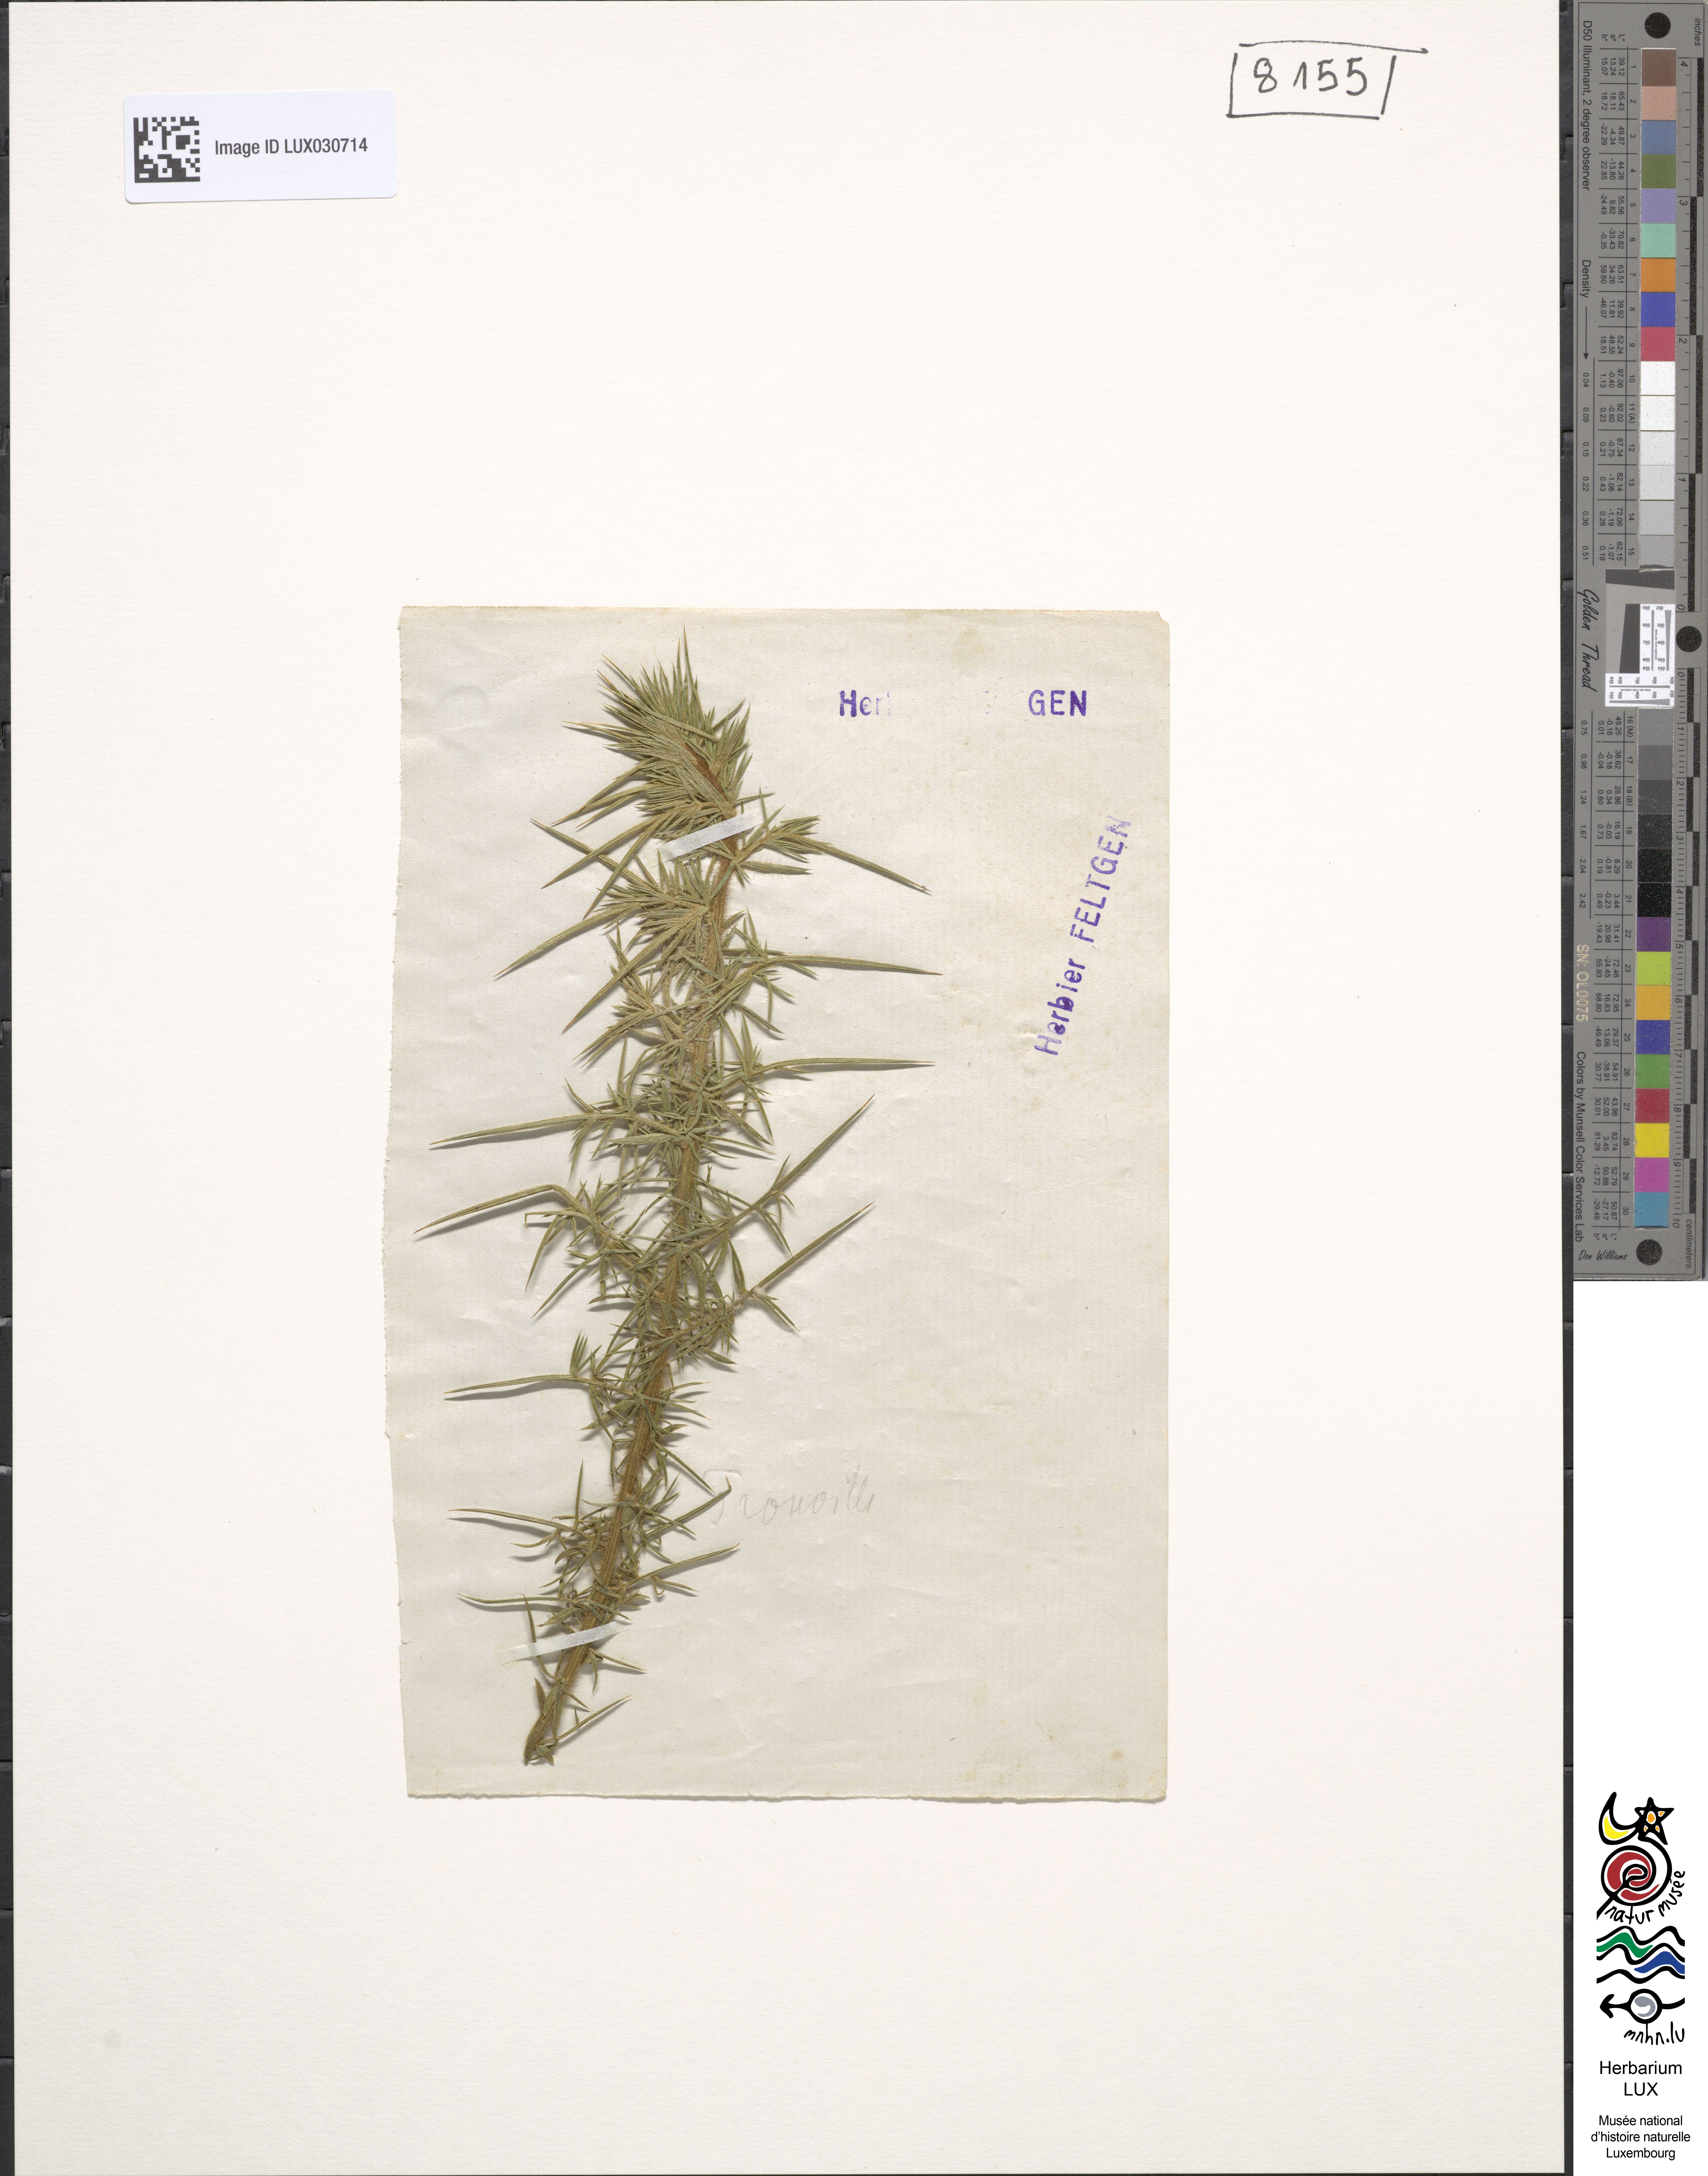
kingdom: Plantae
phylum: Tracheophyta
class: Magnoliopsida
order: Fabales
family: Fabaceae
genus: Ulex
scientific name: Ulex europaeus
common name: Common gorse
